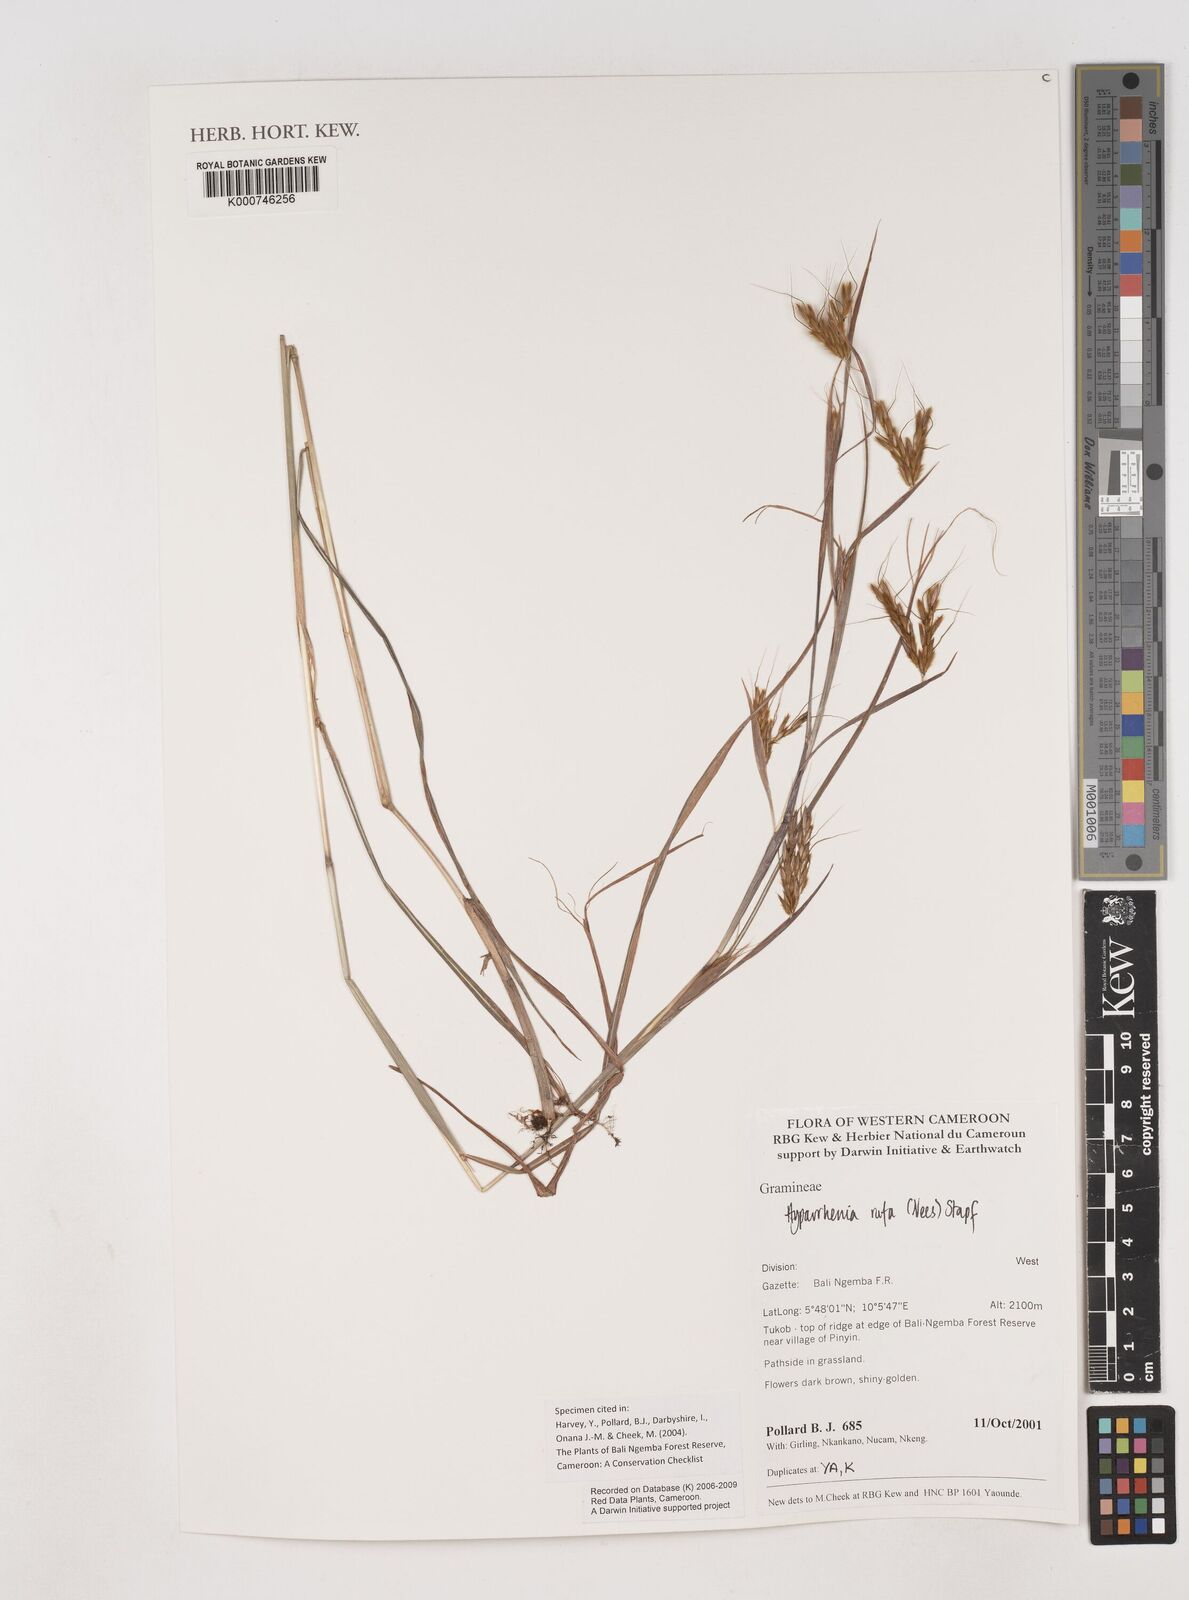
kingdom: Plantae
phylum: Tracheophyta
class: Liliopsida
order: Poales
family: Poaceae
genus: Hyparrhenia
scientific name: Hyparrhenia rufa
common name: Jaraguagrass
